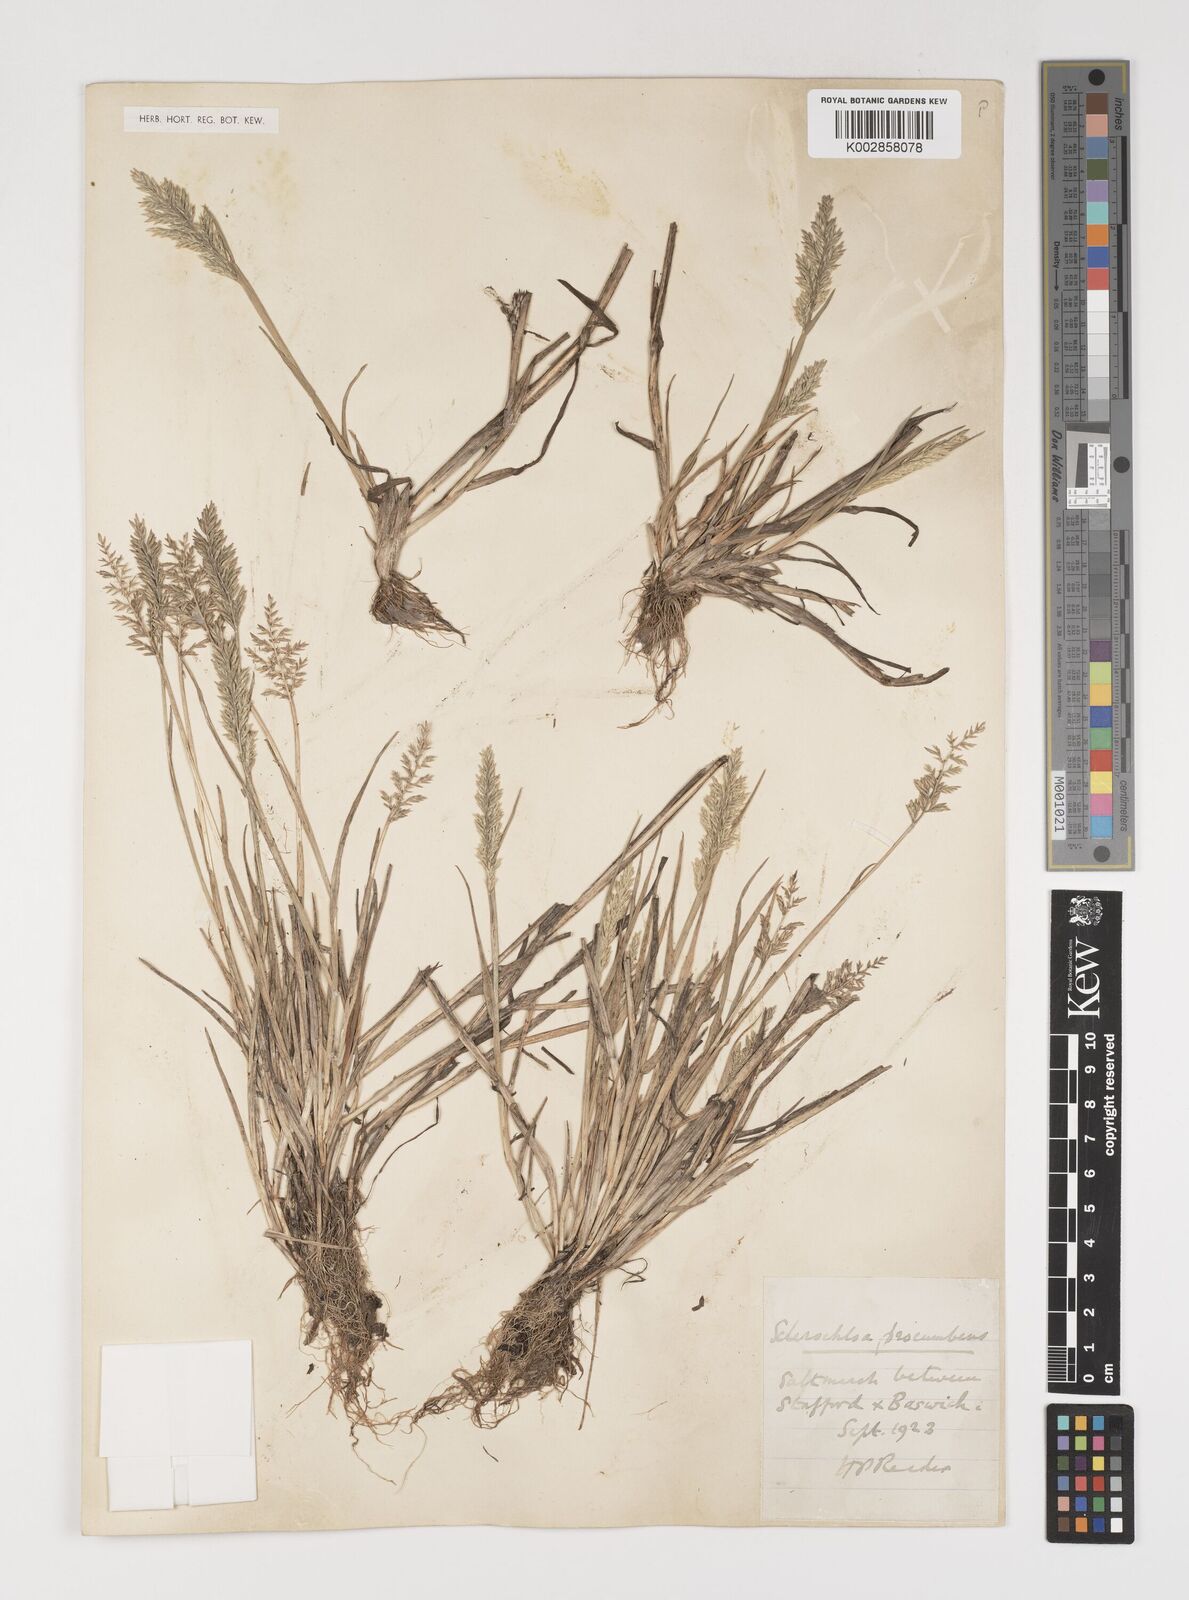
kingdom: Plantae
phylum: Tracheophyta
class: Liliopsida
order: Poales
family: Poaceae
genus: Puccinellia
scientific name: Puccinellia rupestris
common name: Stiff saltmarsh-grass
